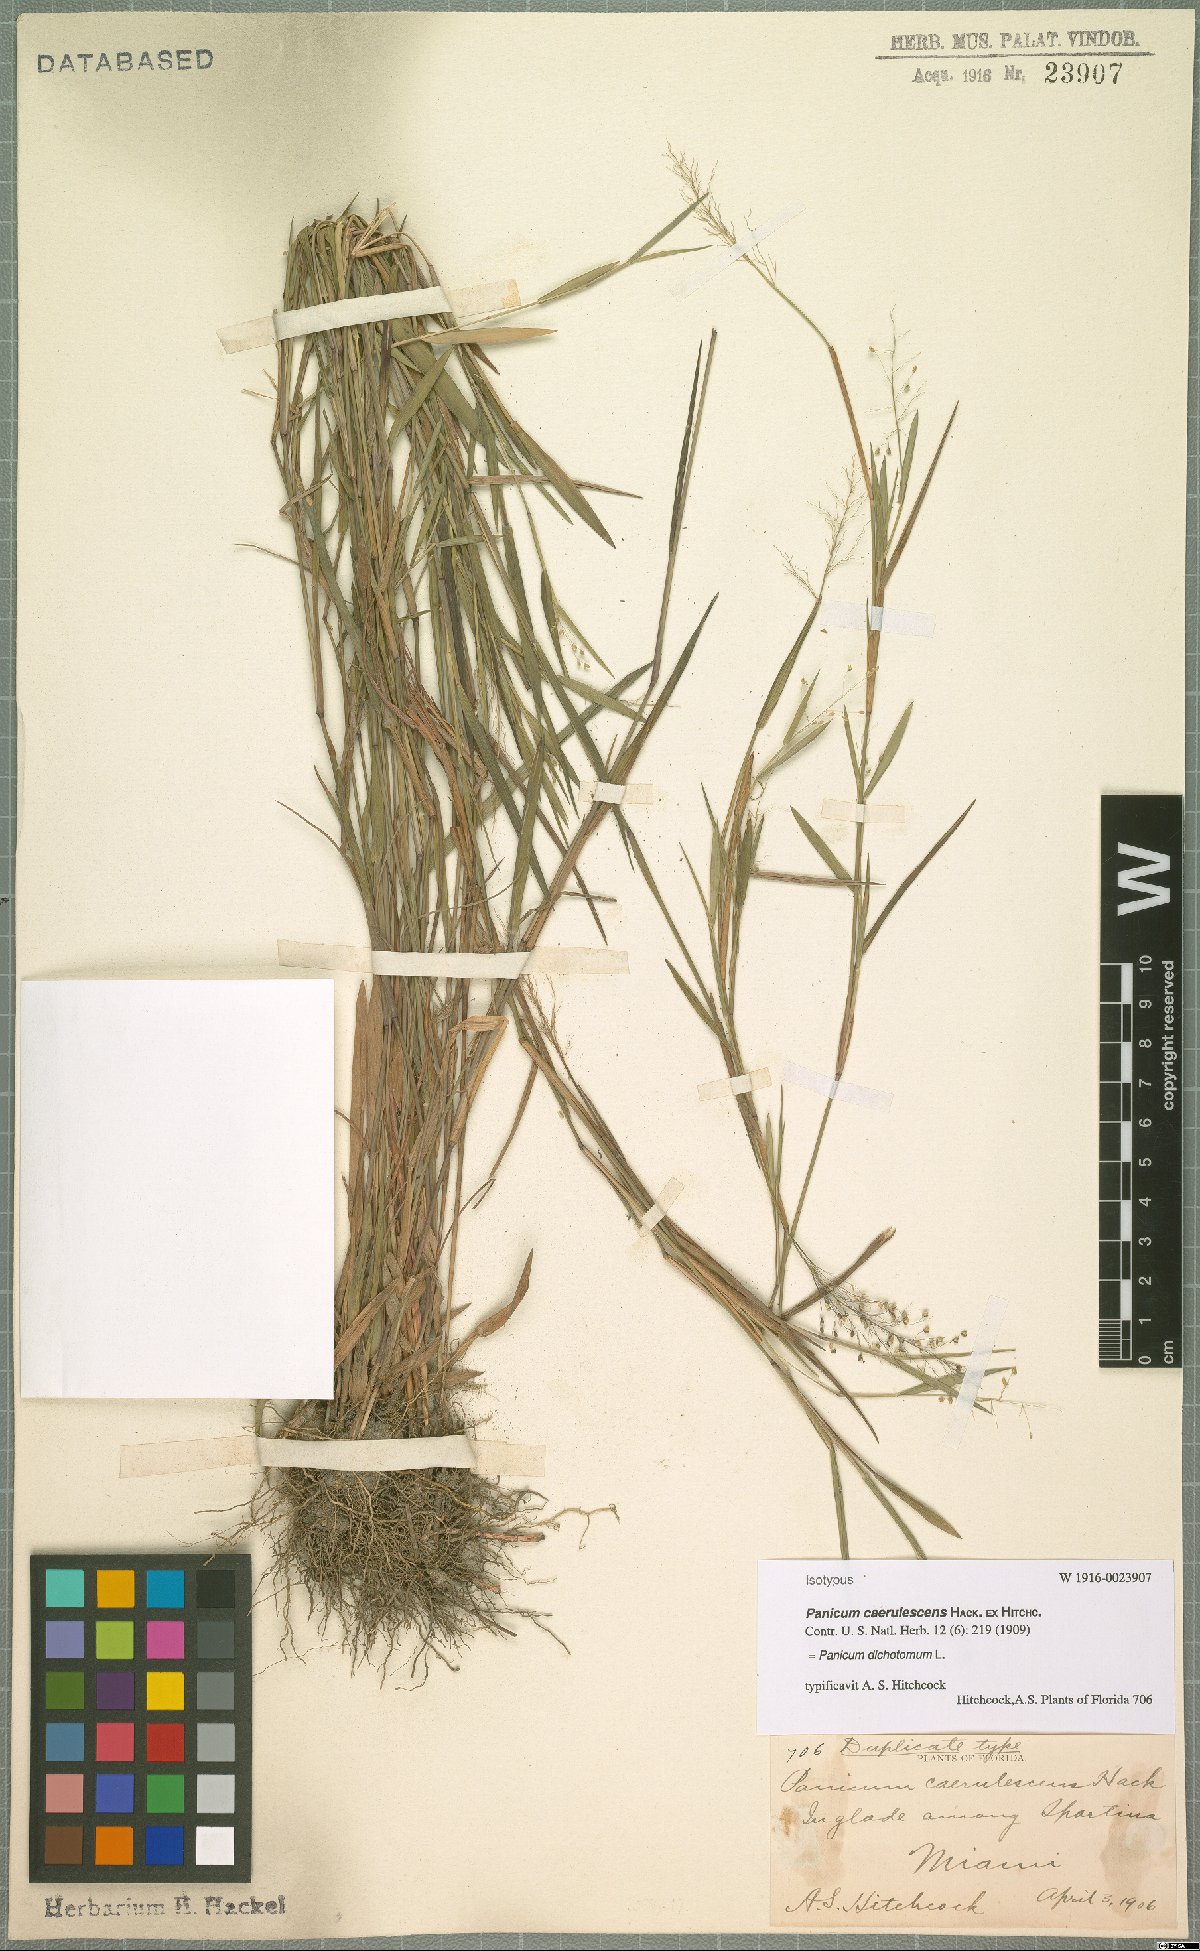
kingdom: Plantae
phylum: Tracheophyta
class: Liliopsida
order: Poales
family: Poaceae
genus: Dichanthelium
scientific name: Dichanthelium dichotomum
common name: Cypress panicgrass
